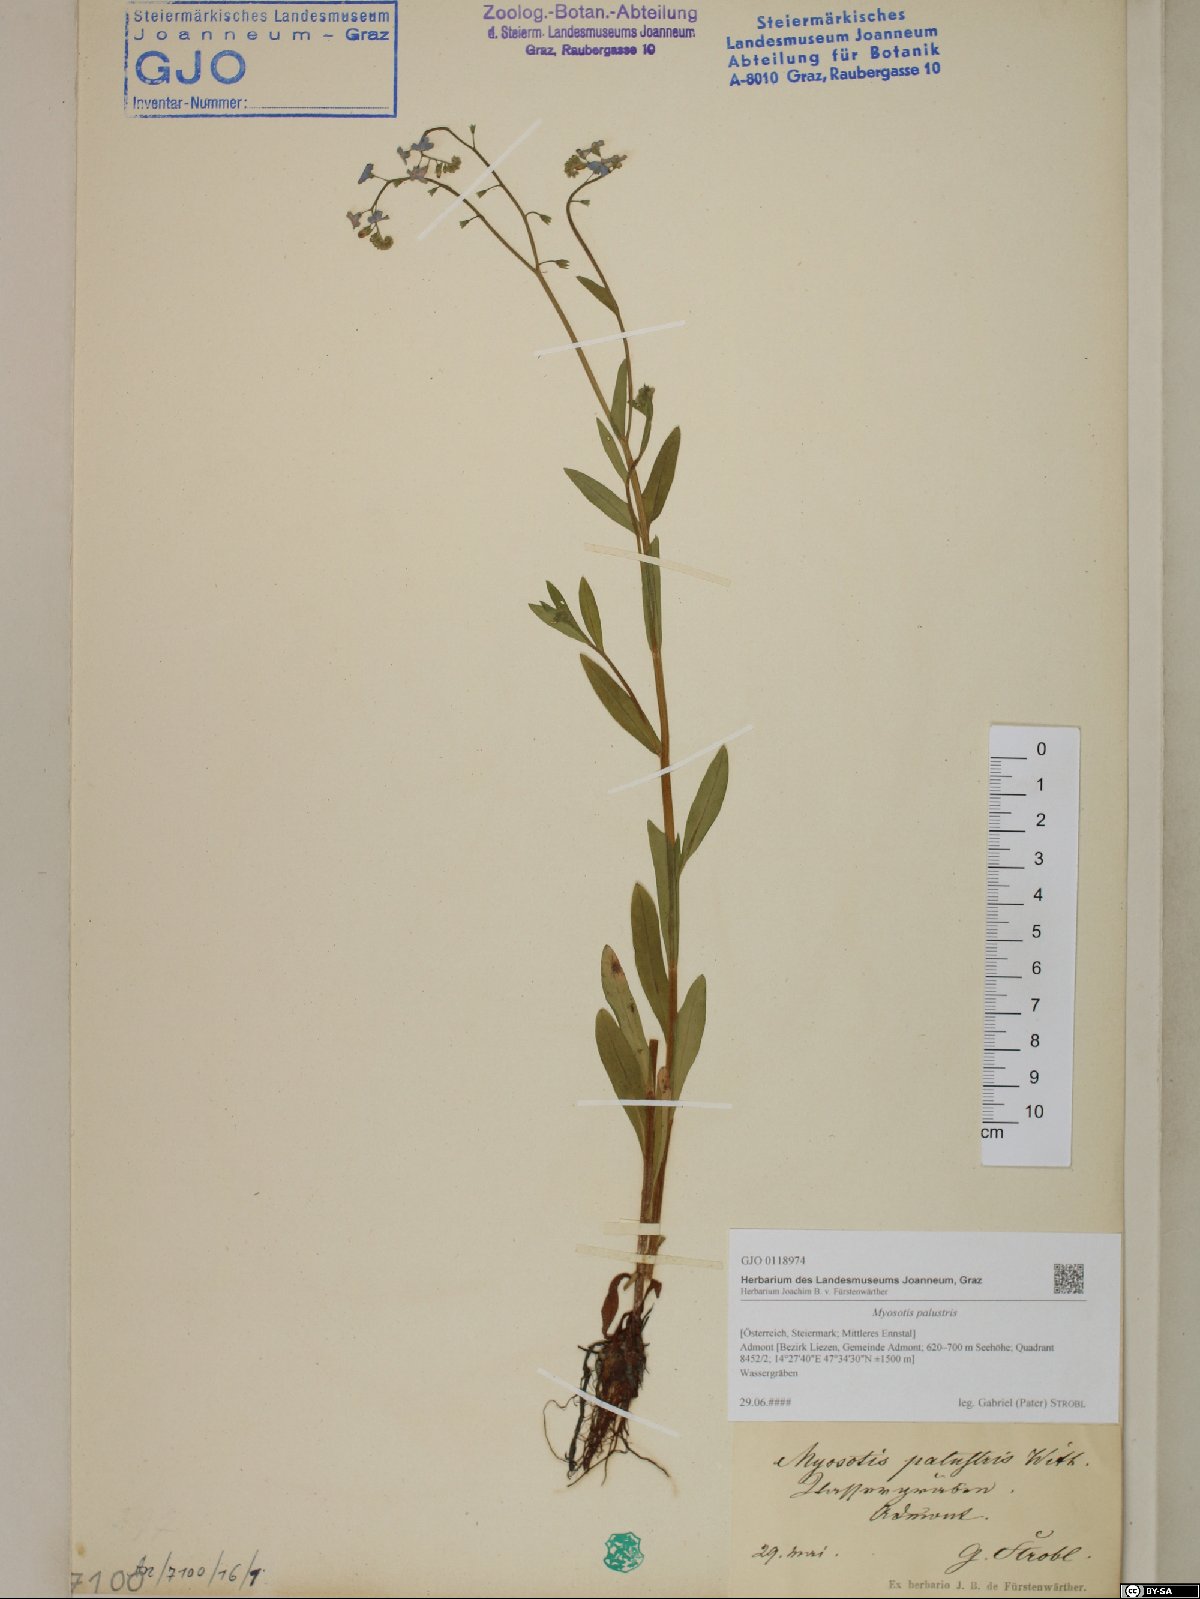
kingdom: Plantae
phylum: Tracheophyta
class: Magnoliopsida
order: Boraginales
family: Boraginaceae
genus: Myosotis
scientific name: Myosotis scorpioides
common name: Water forget-me-not
